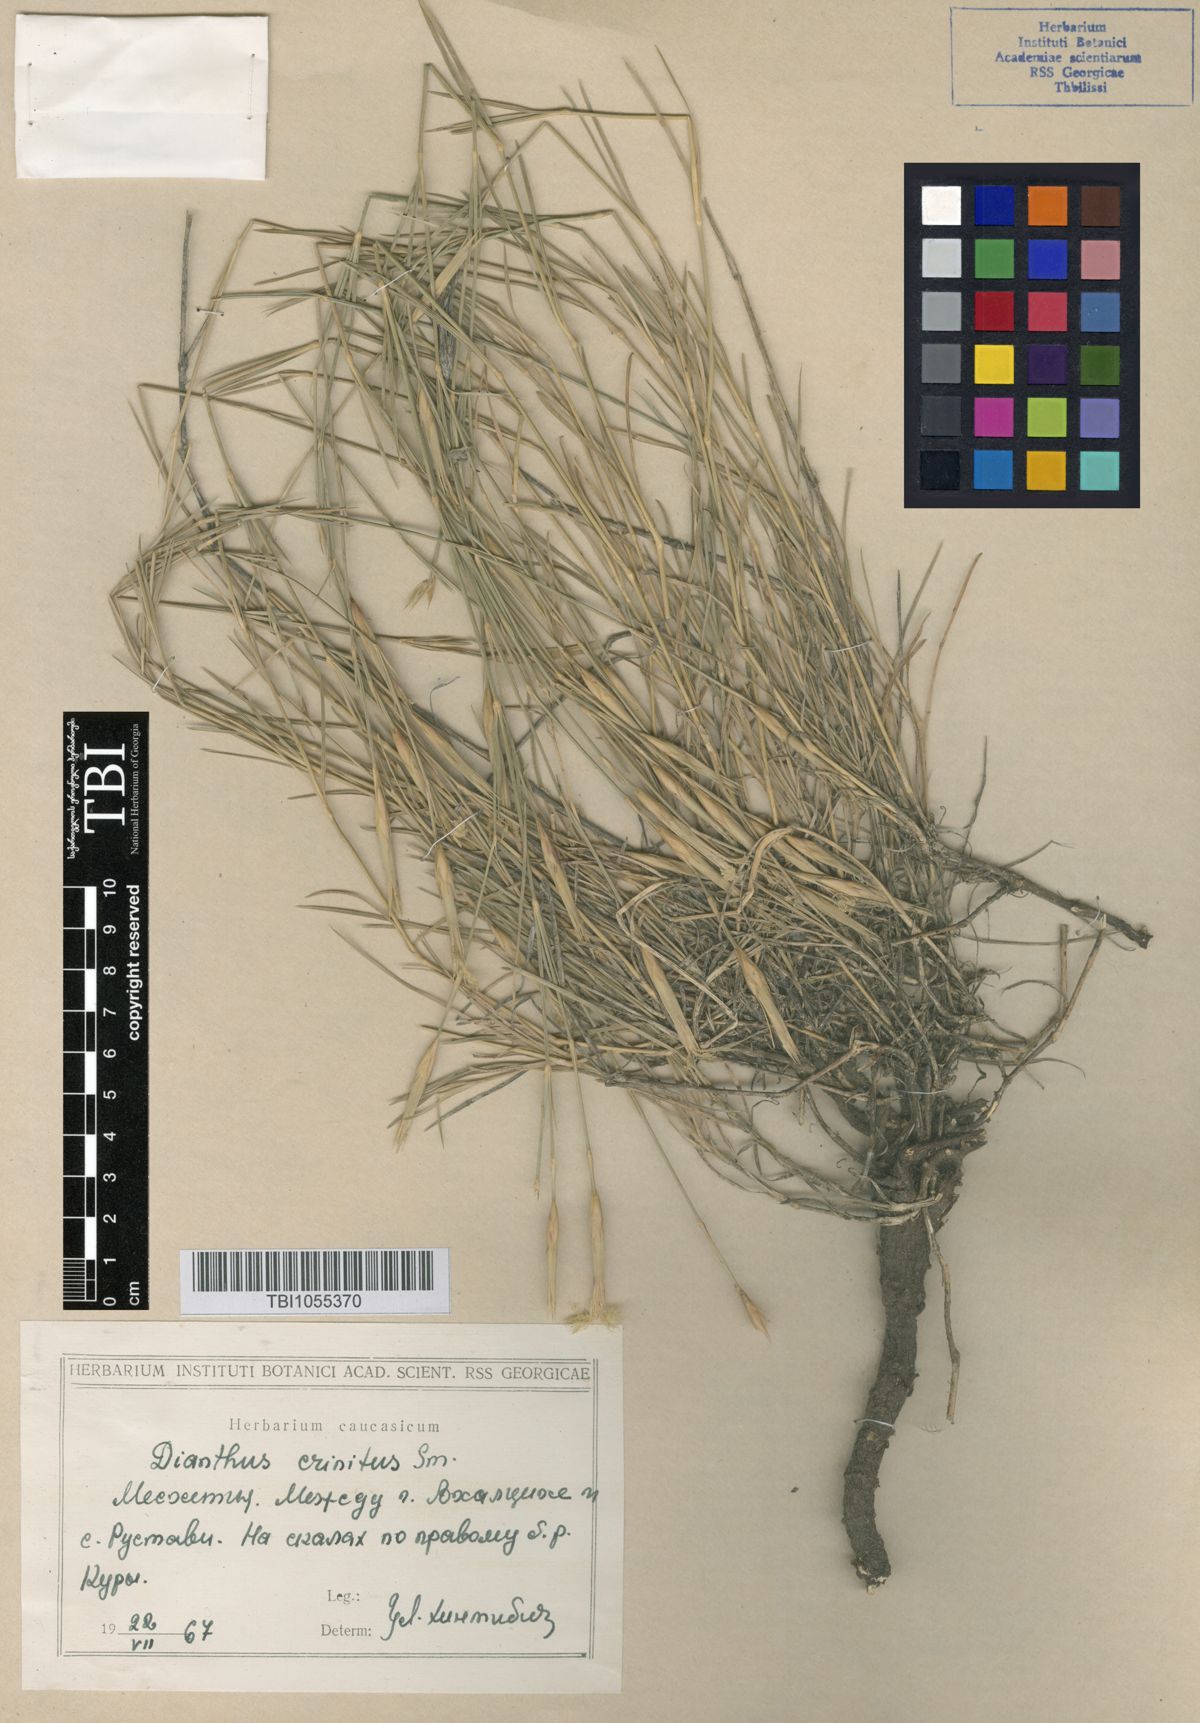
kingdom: Plantae
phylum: Tracheophyta
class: Magnoliopsida
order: Caryophyllales
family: Caryophyllaceae
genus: Dianthus
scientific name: Dianthus crinitus
